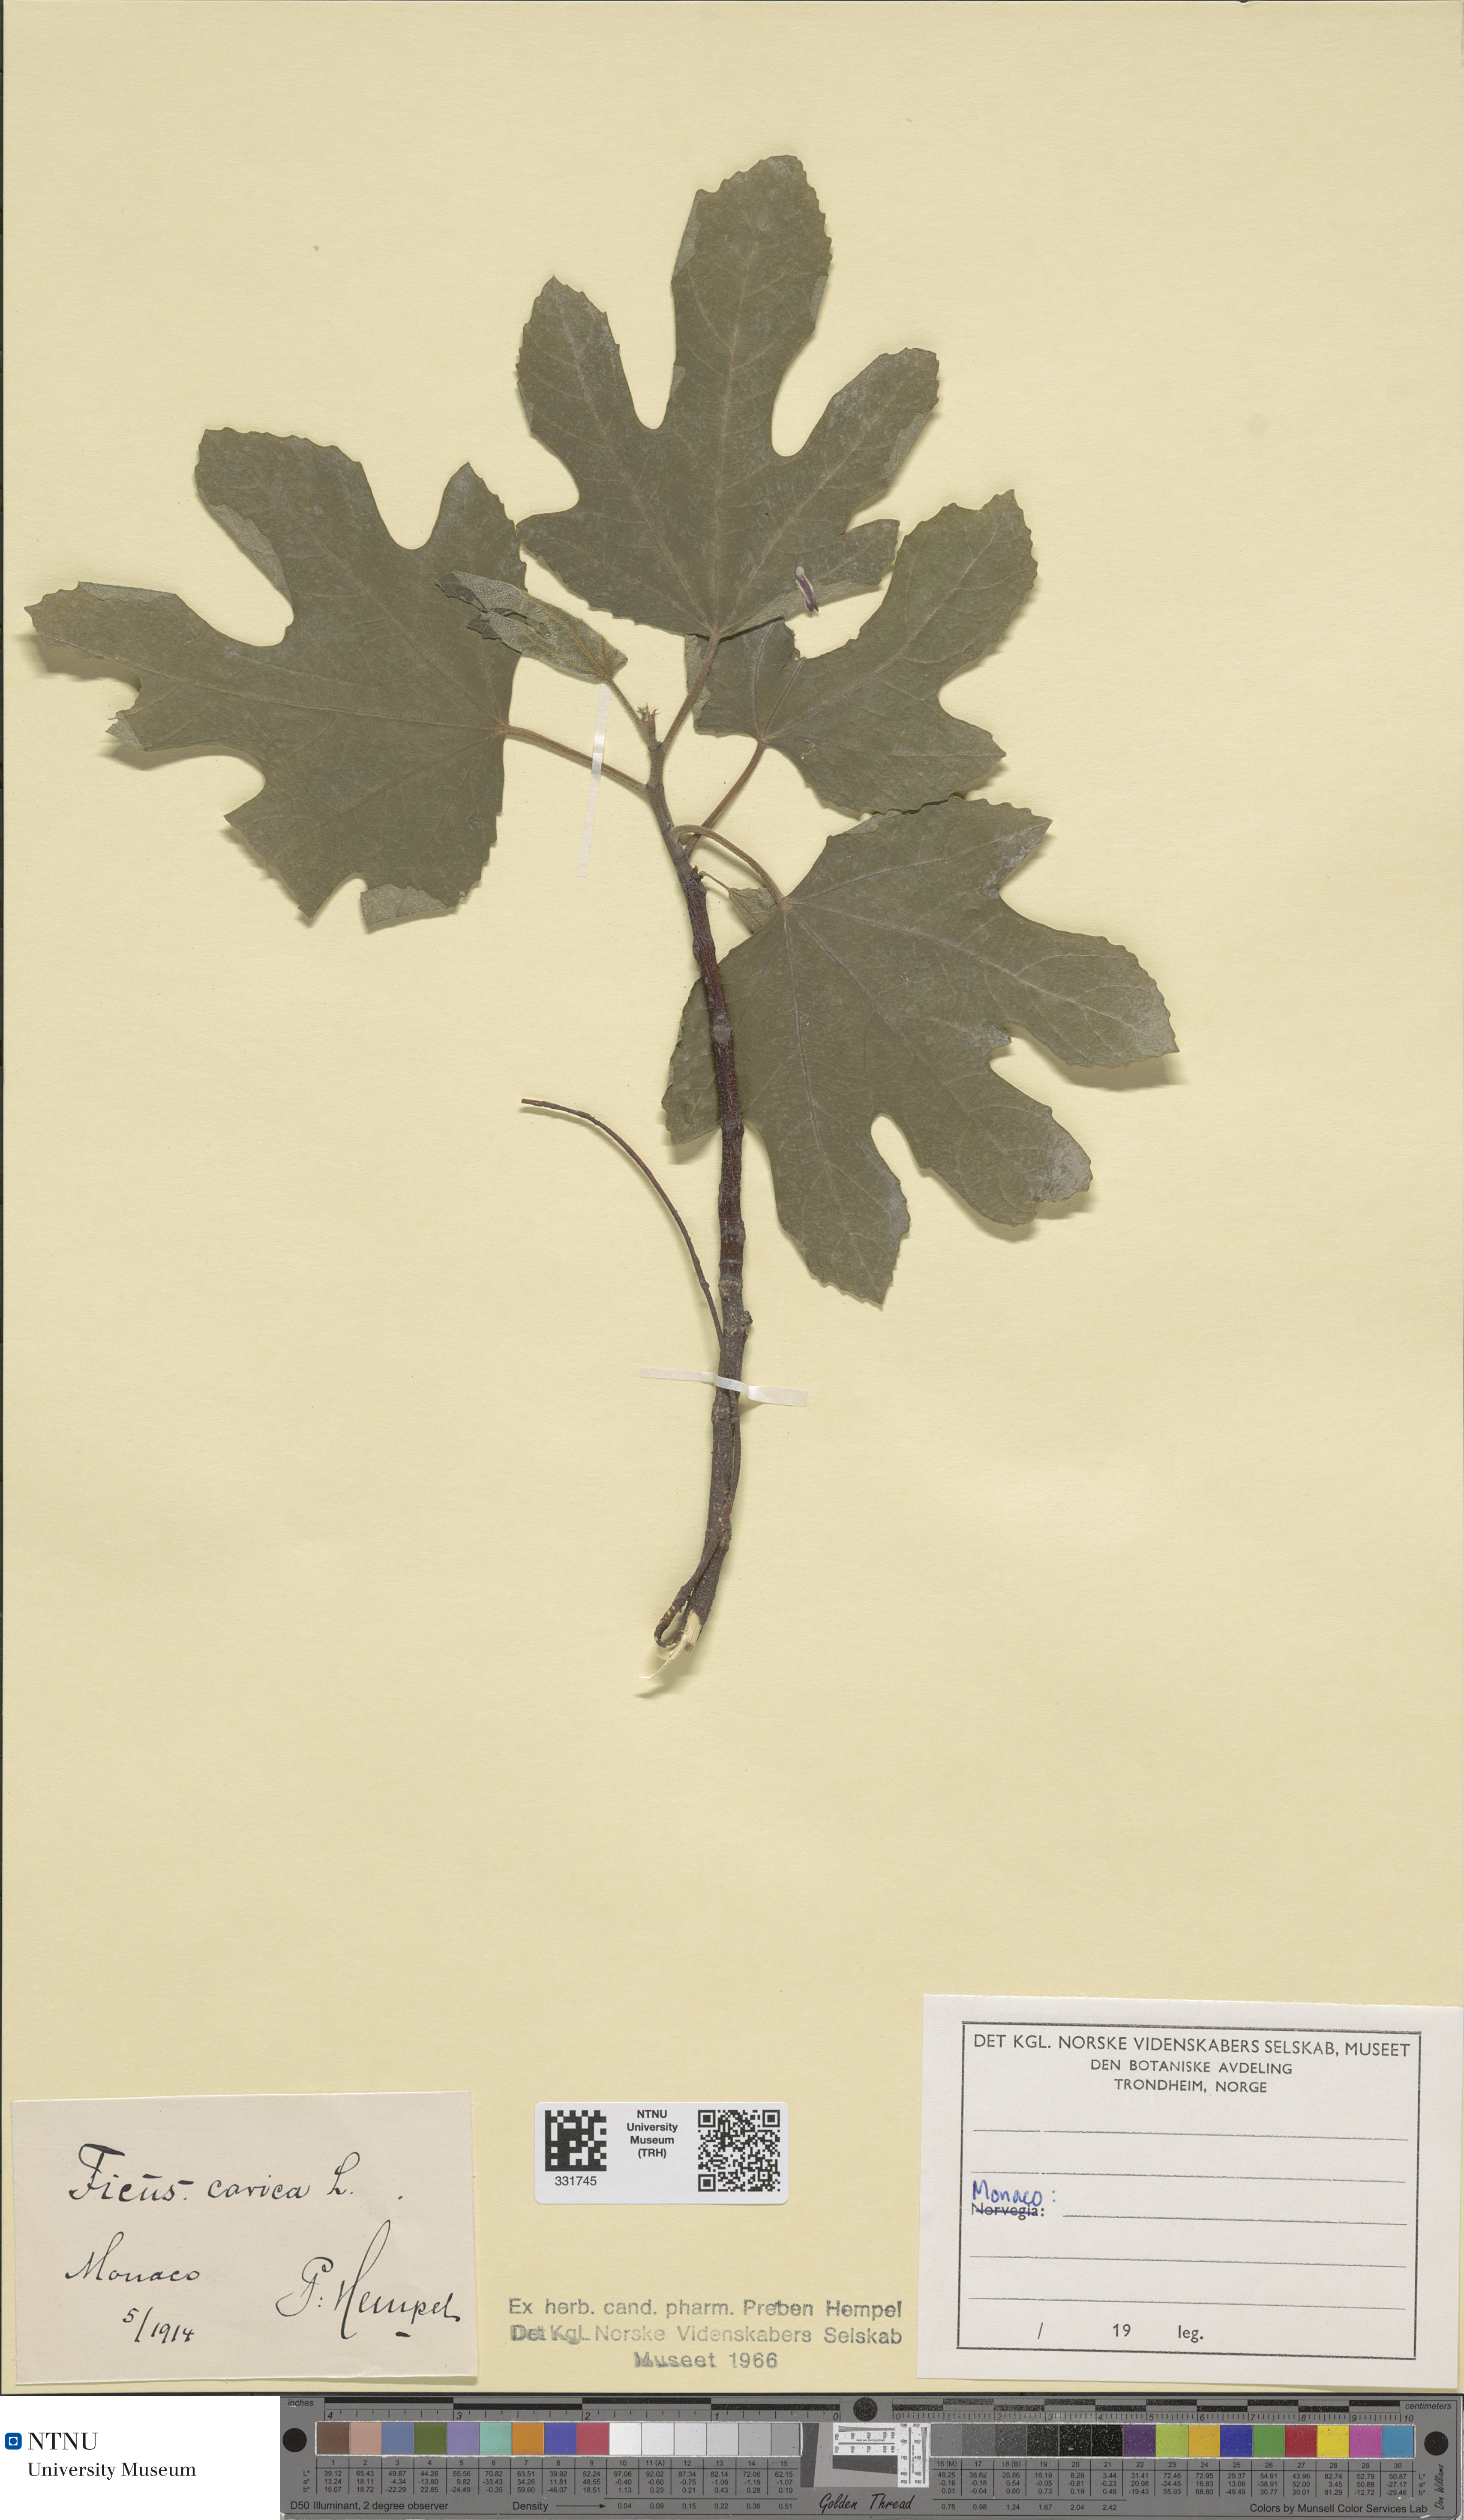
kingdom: Plantae
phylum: Tracheophyta
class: Magnoliopsida
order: Rosales
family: Moraceae
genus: Ficus
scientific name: Ficus carica
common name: Fig
